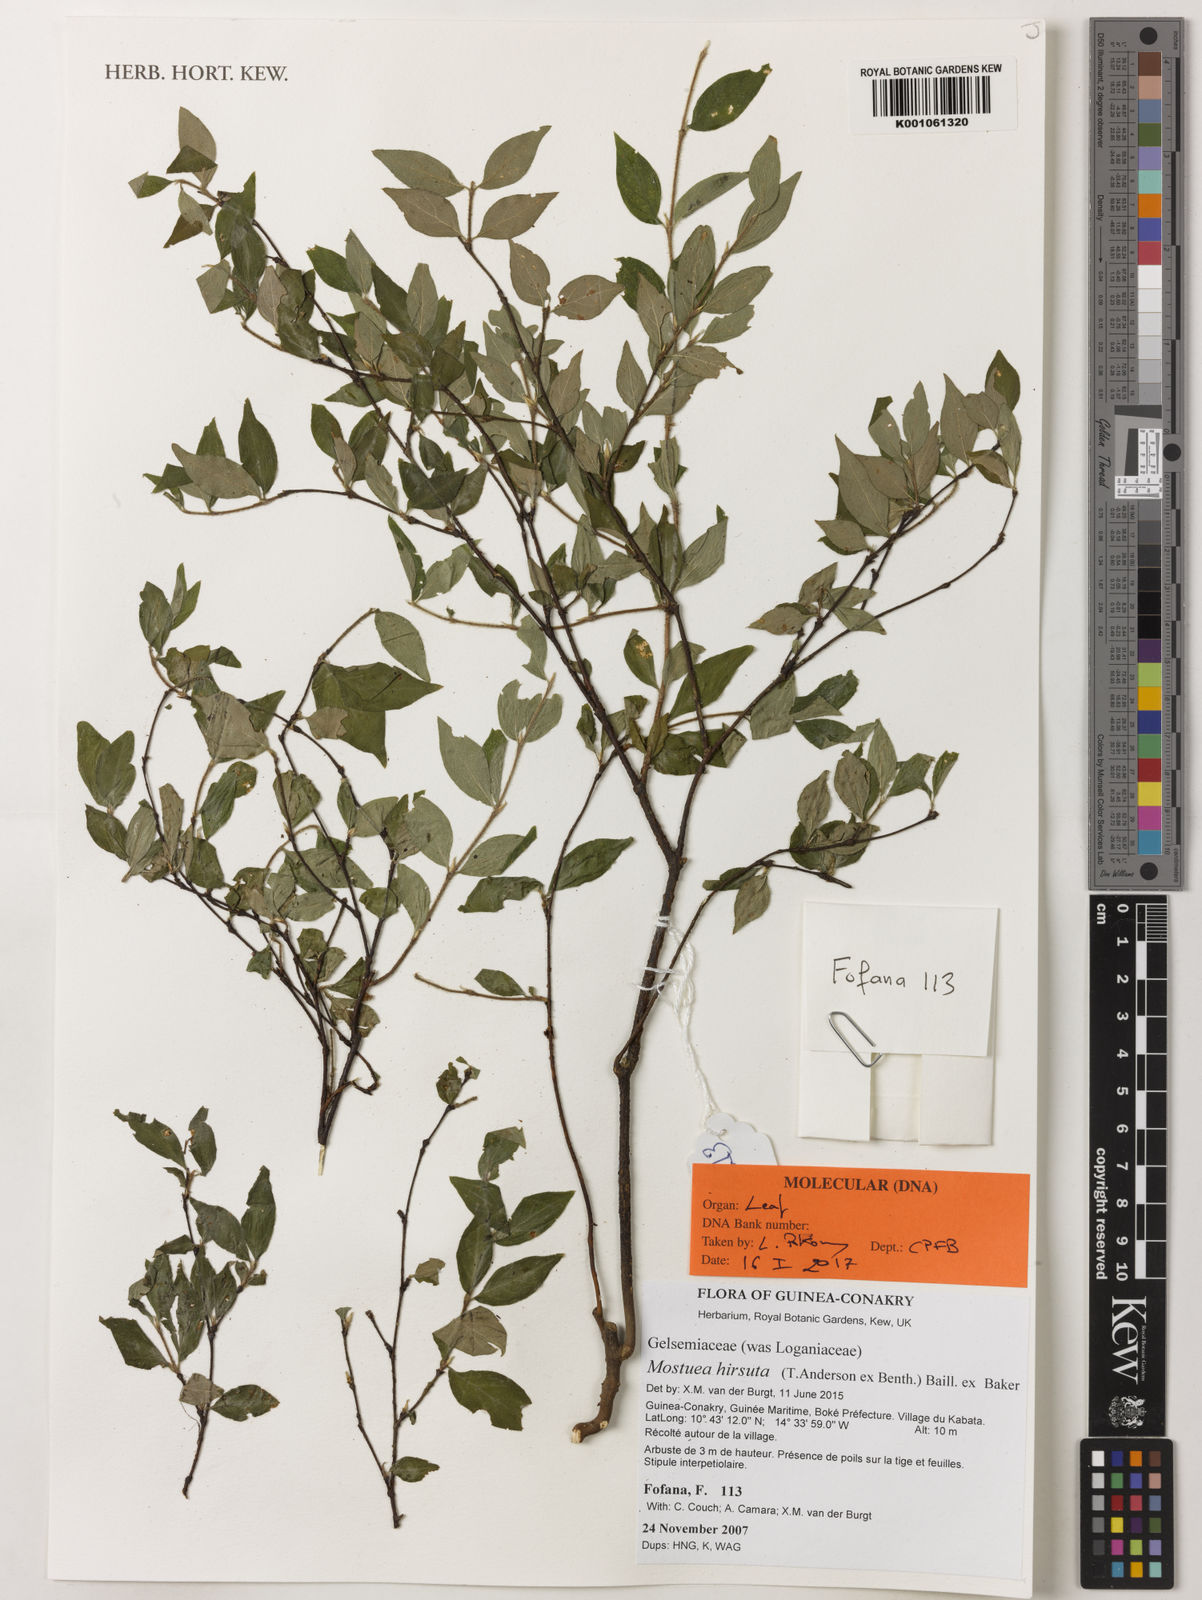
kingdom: Plantae
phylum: Tracheophyta
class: Magnoliopsida
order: Gentianales
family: Gelsemiaceae
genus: Mostuea
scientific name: Mostuea
